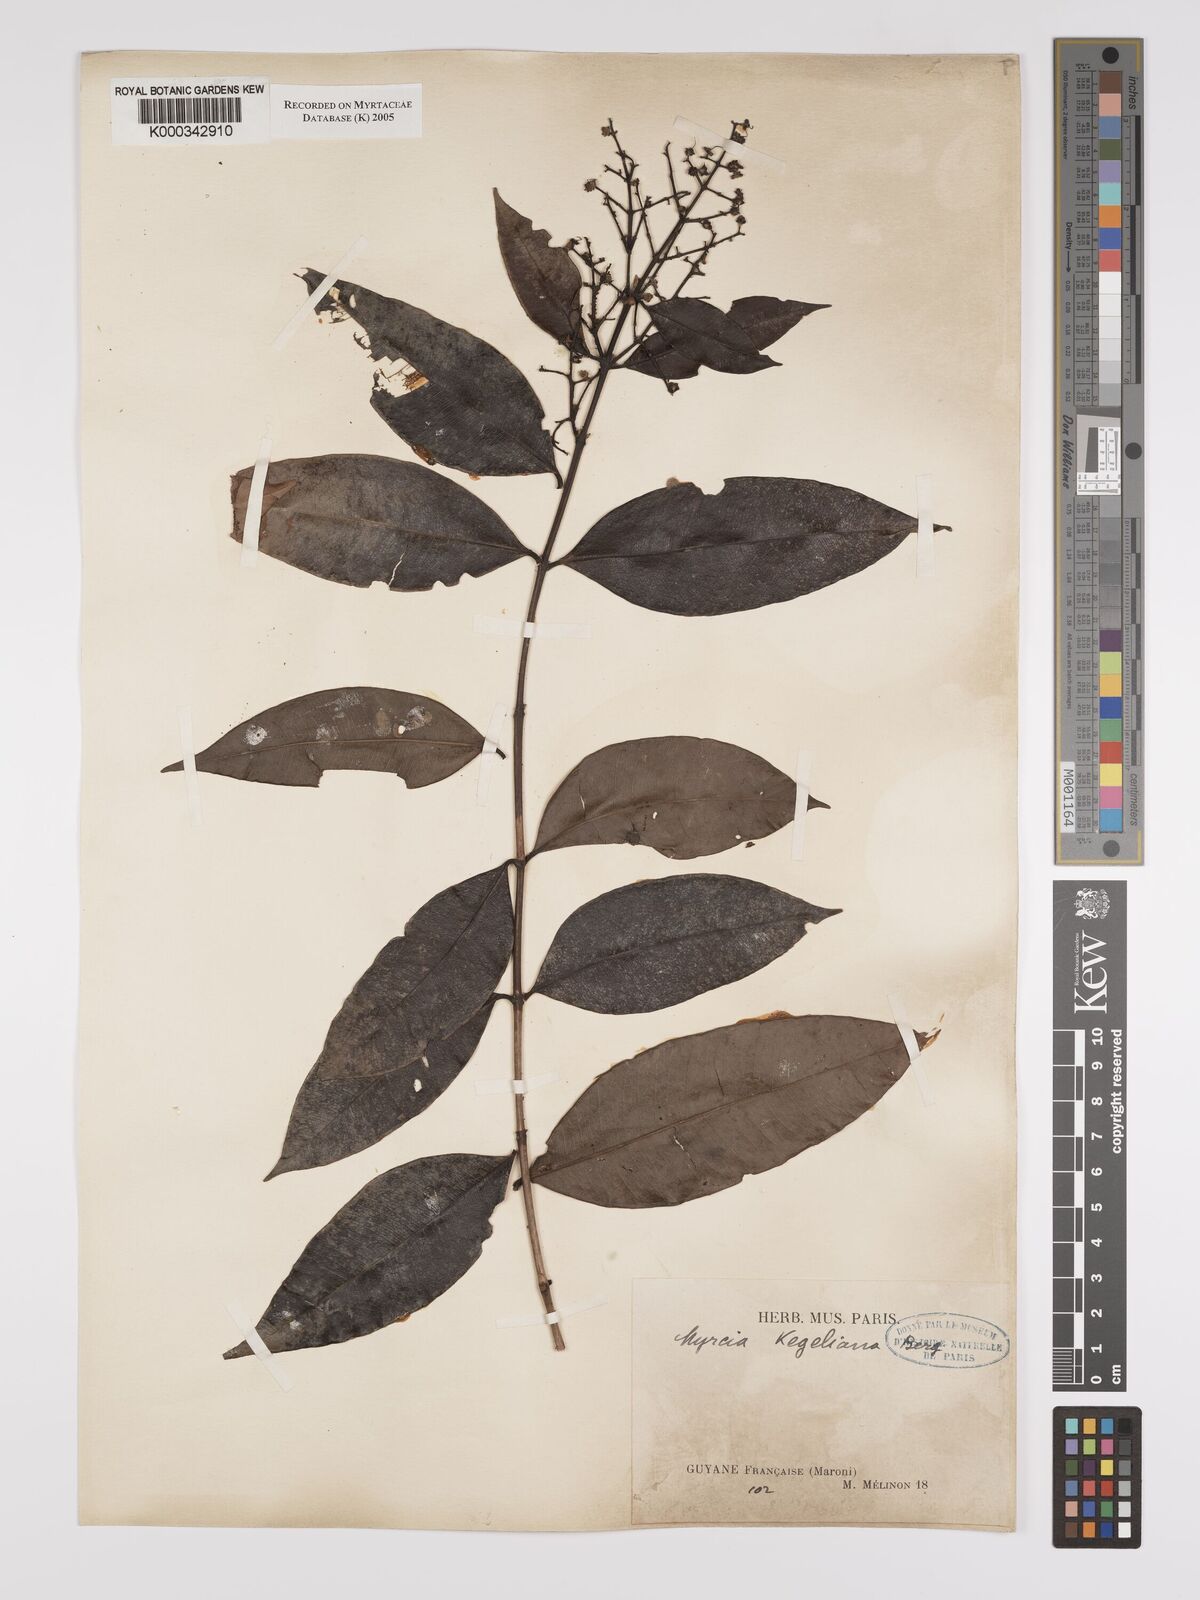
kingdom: Plantae
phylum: Tracheophyta
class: Magnoliopsida
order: Myrtales
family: Myrtaceae
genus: Myrcia
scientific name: Myrcia splendens
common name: Surinam cherry
